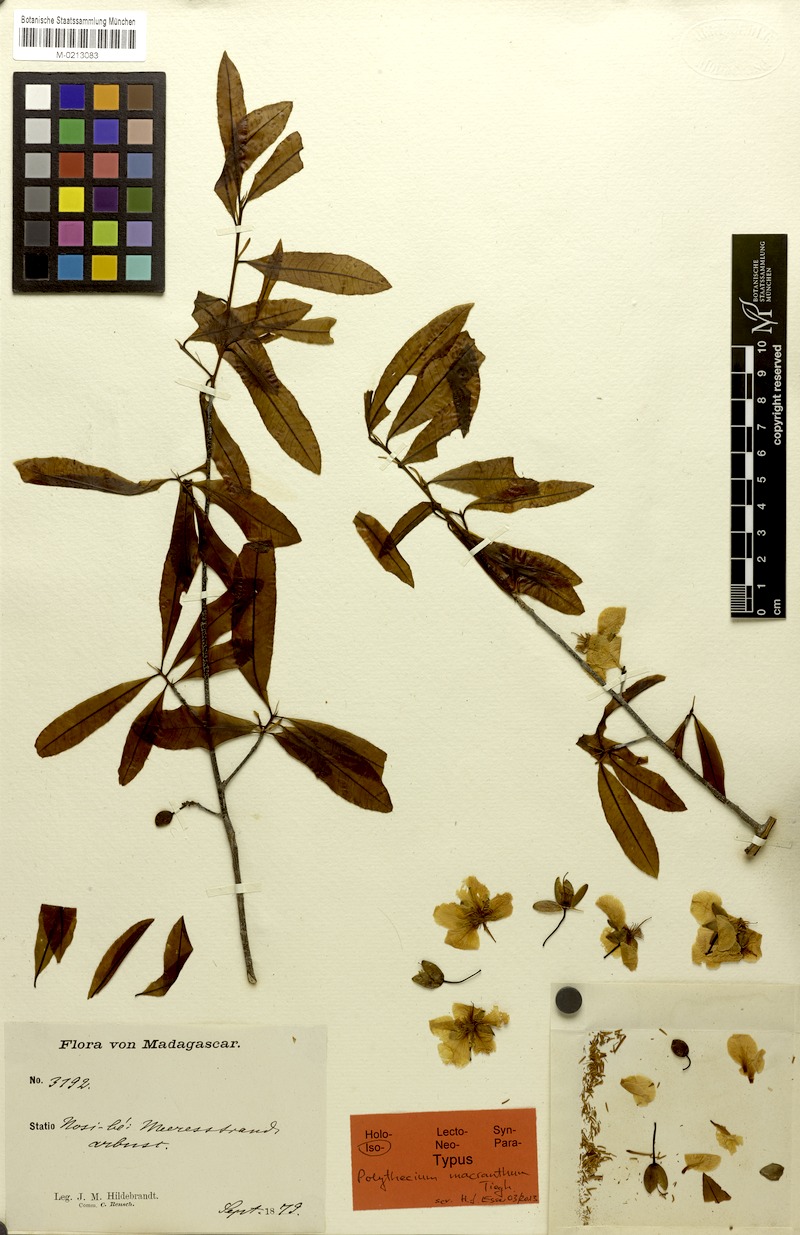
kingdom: Plantae
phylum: Tracheophyta
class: Magnoliopsida
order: Malpighiales
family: Ochnaceae
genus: Ochna
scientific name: Ochna ciliata
